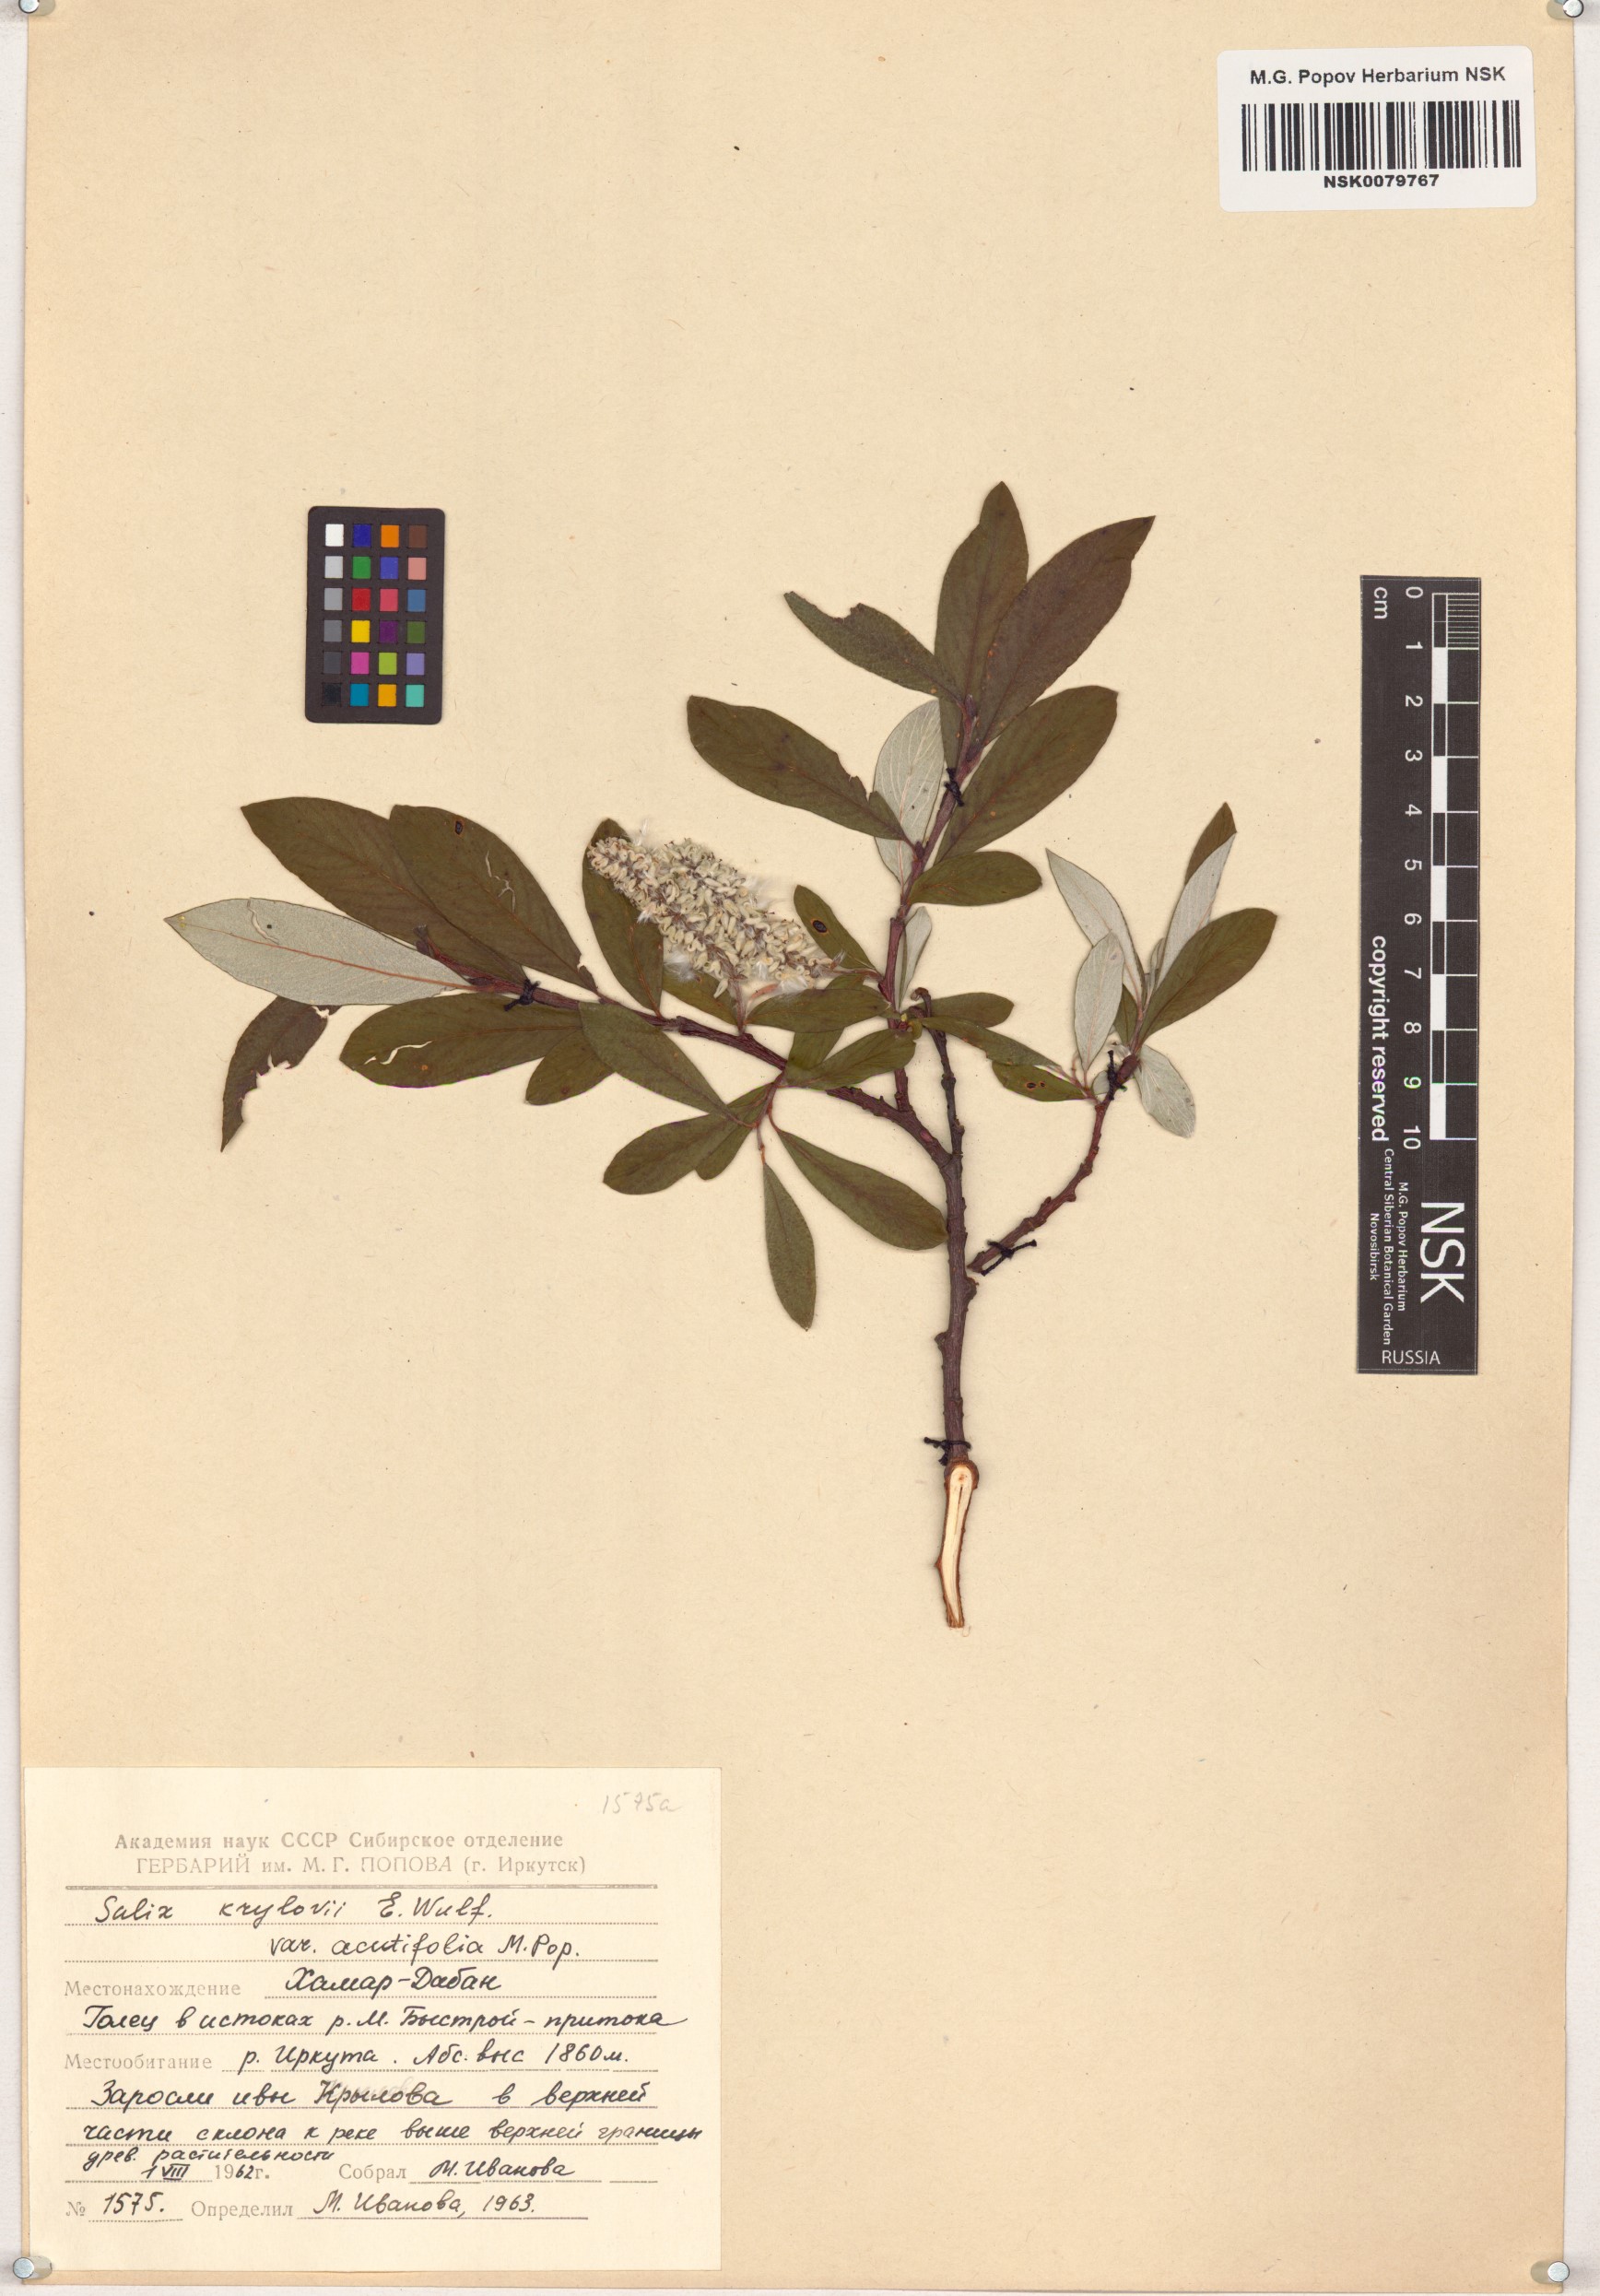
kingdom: Plantae
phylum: Tracheophyta
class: Magnoliopsida
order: Malpighiales
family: Salicaceae
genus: Salix
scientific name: Salix krylovii
